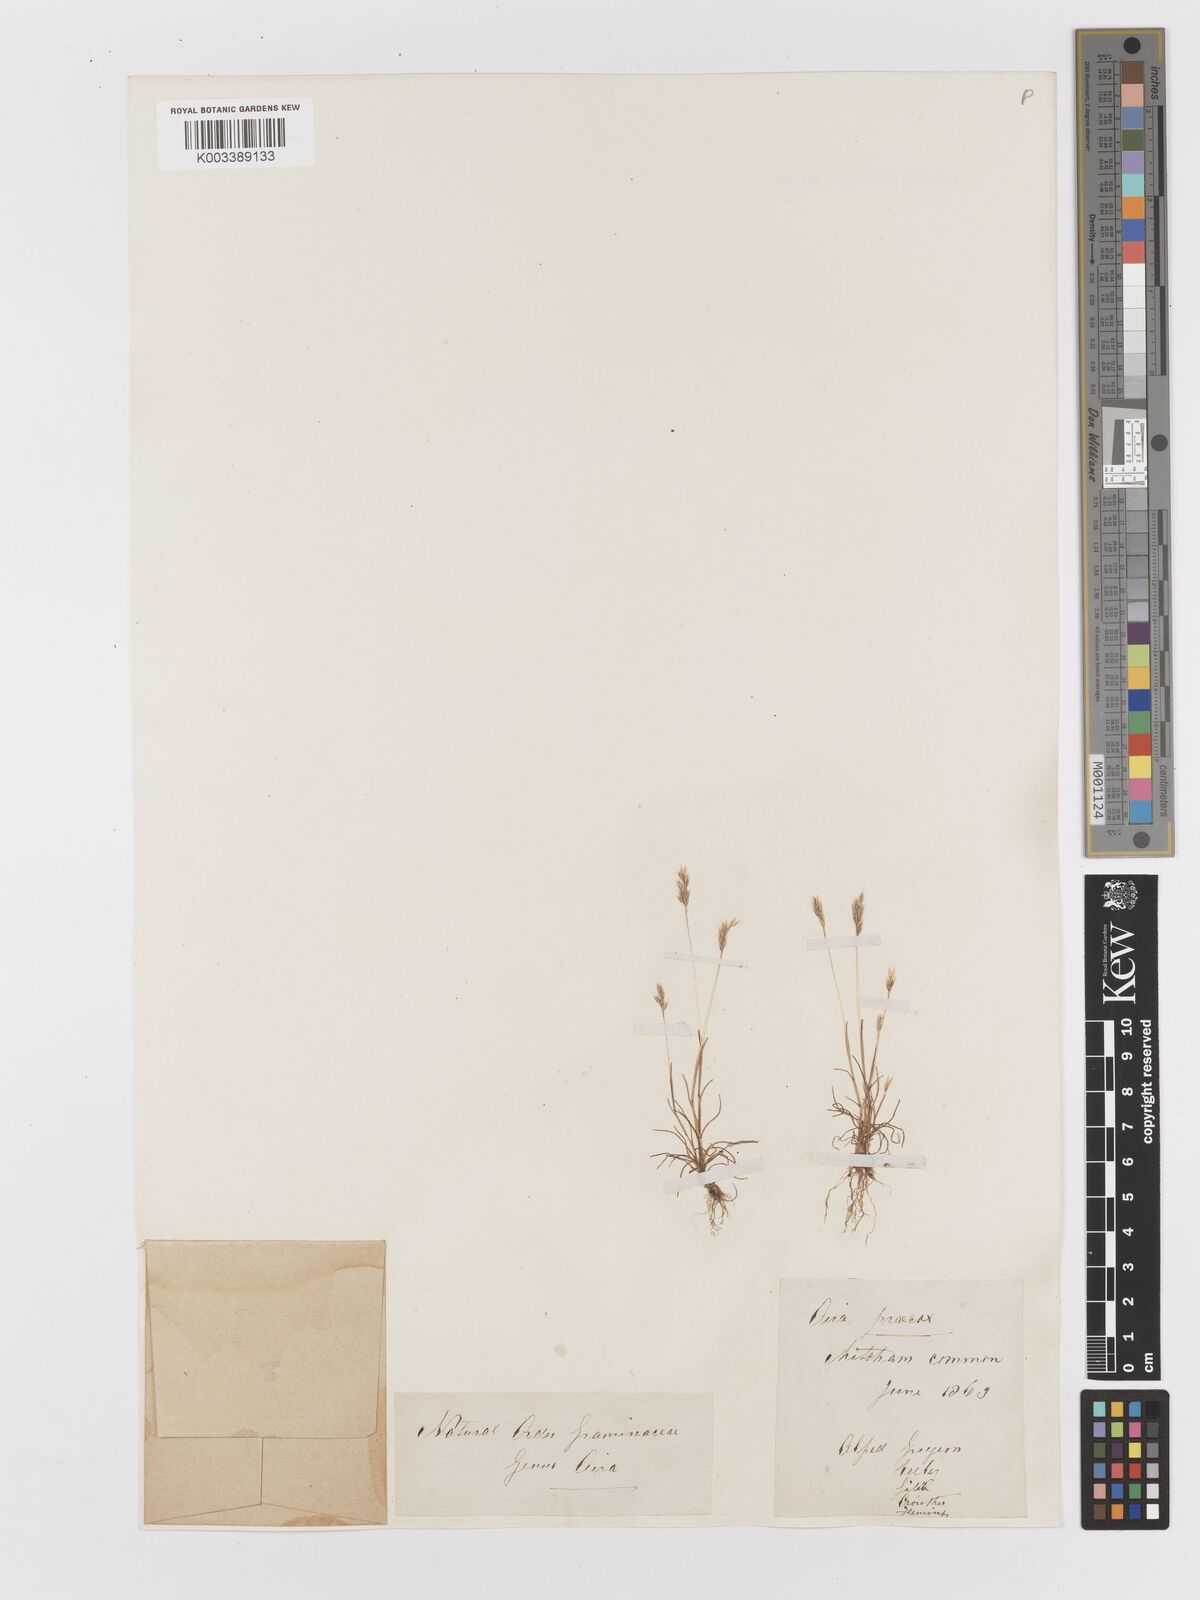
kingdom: Plantae
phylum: Tracheophyta
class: Liliopsida
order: Poales
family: Poaceae
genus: Aira
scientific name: Aira praecox
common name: Early hair-grass
